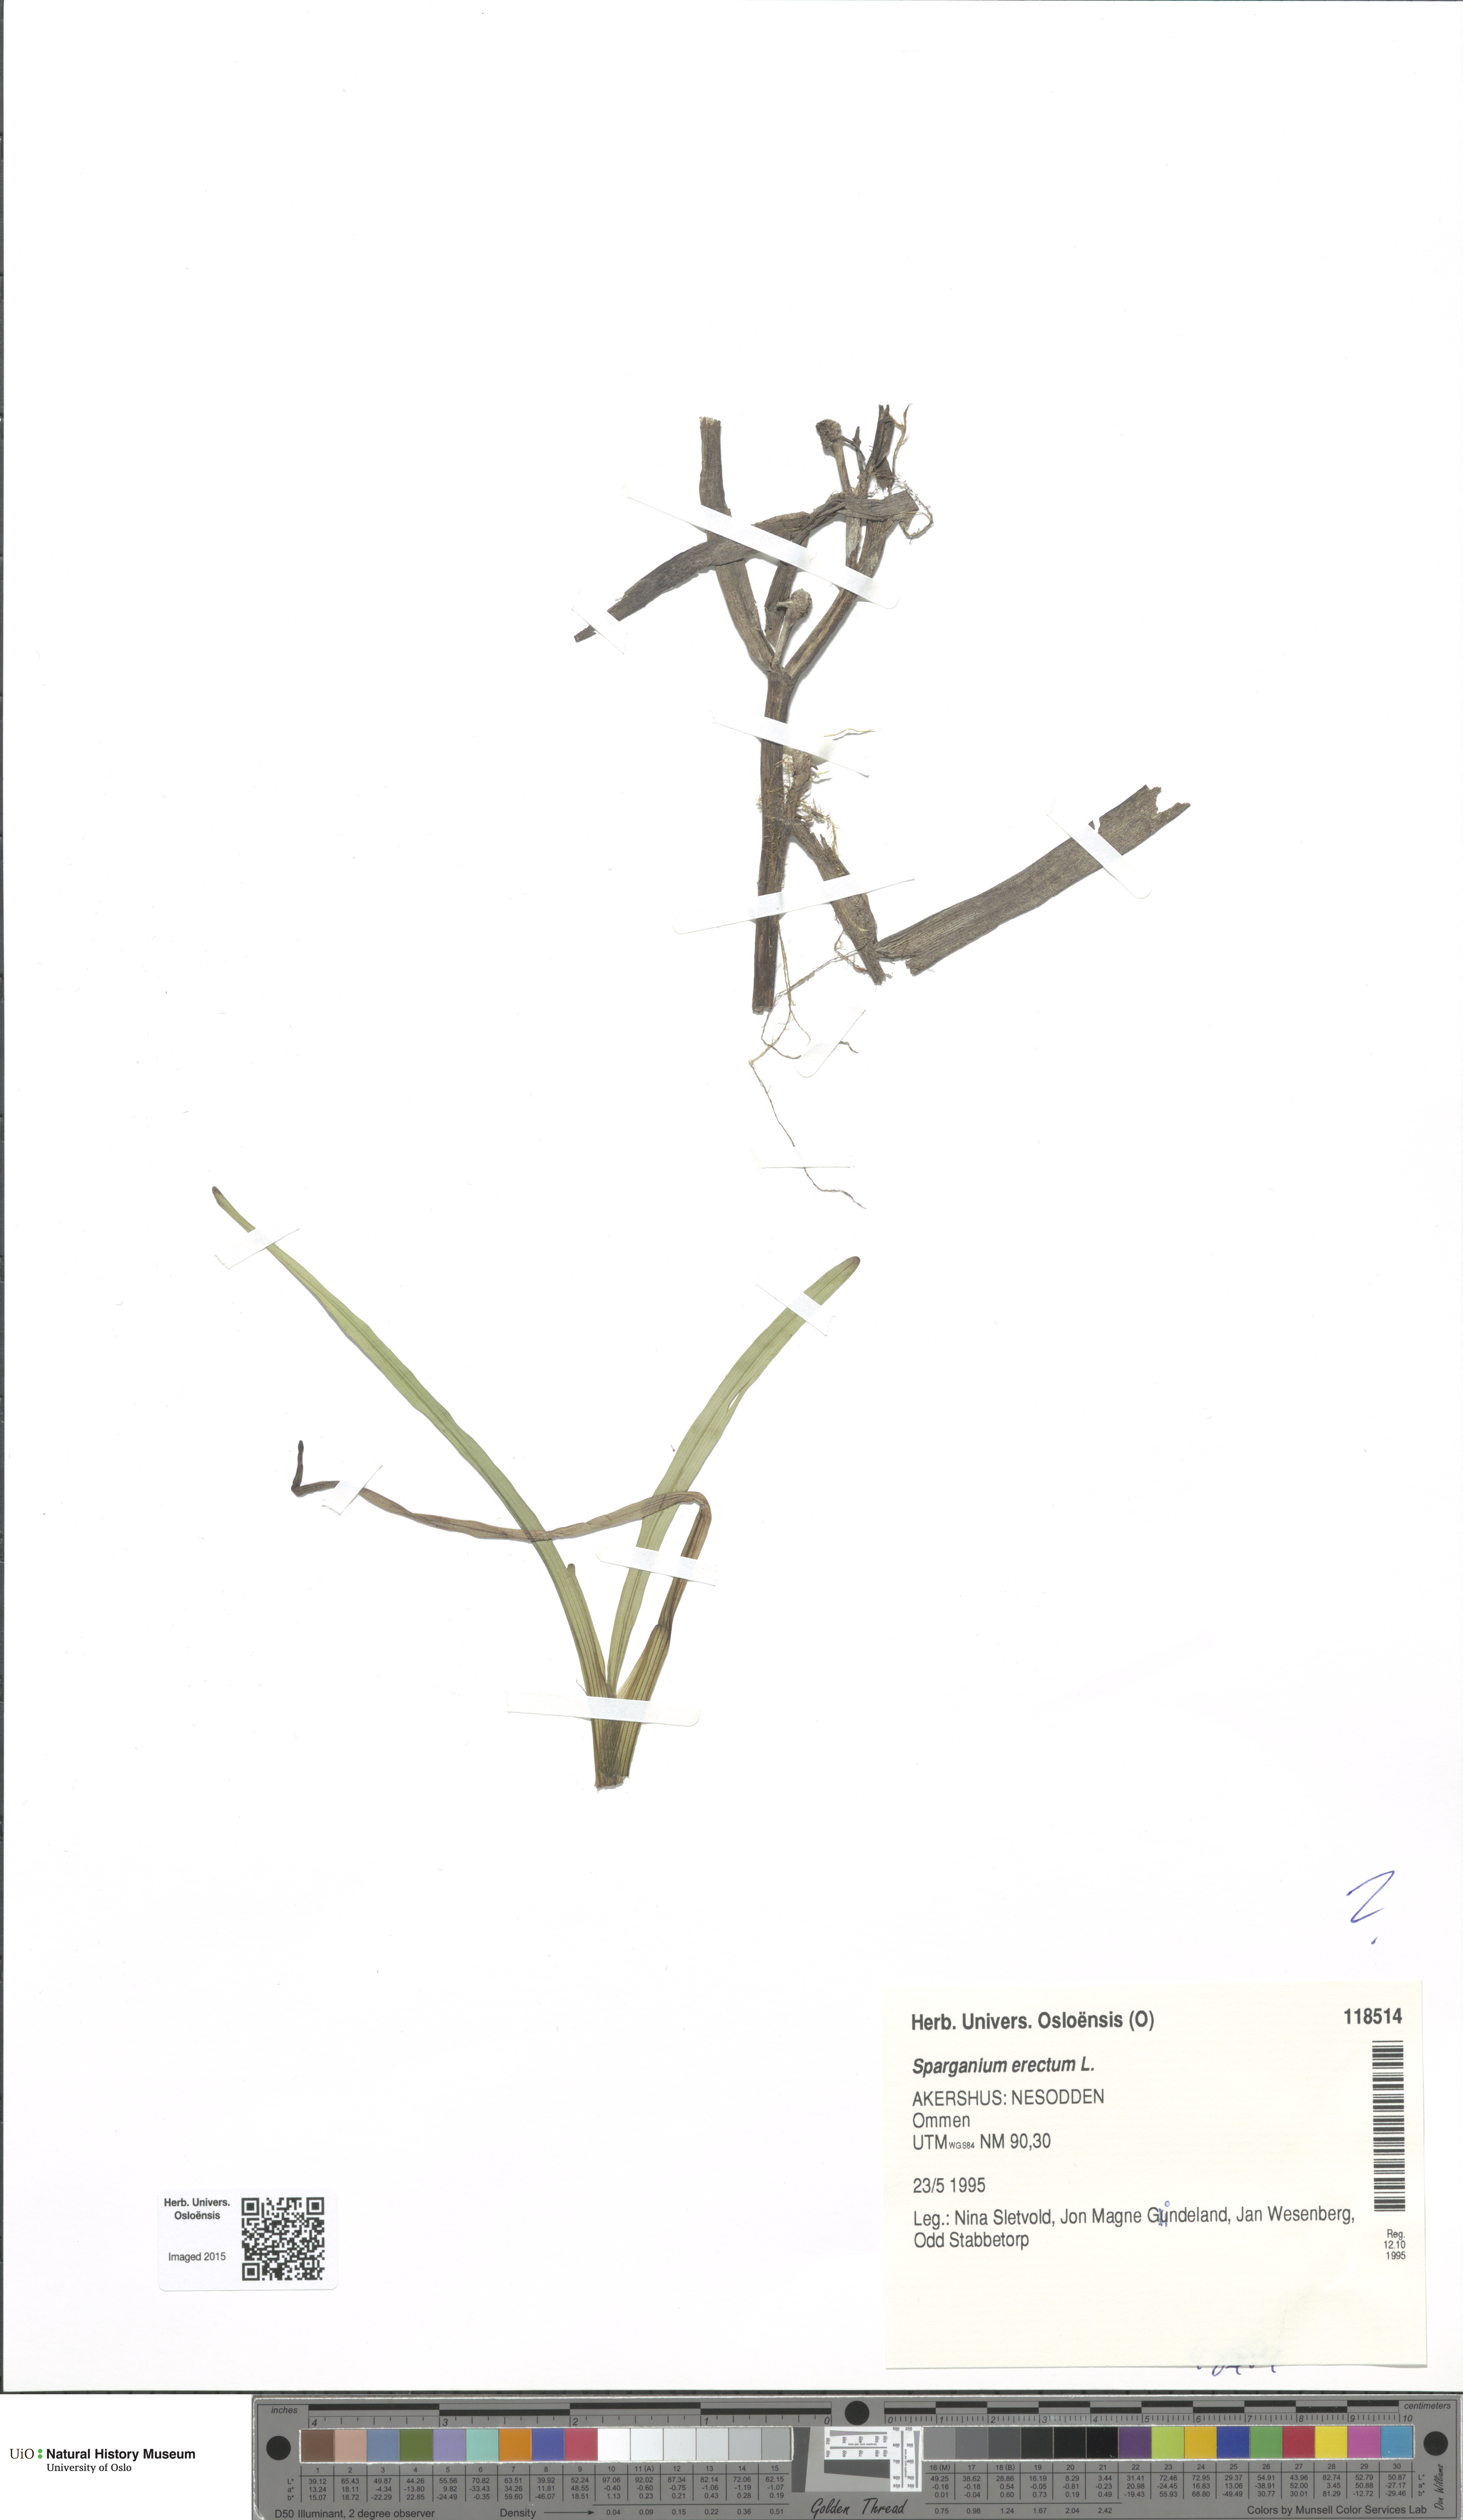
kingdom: Plantae
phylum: Tracheophyta
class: Liliopsida
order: Poales
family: Typhaceae
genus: Sparganium
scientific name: Sparganium erectum
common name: Branched bur-reed
